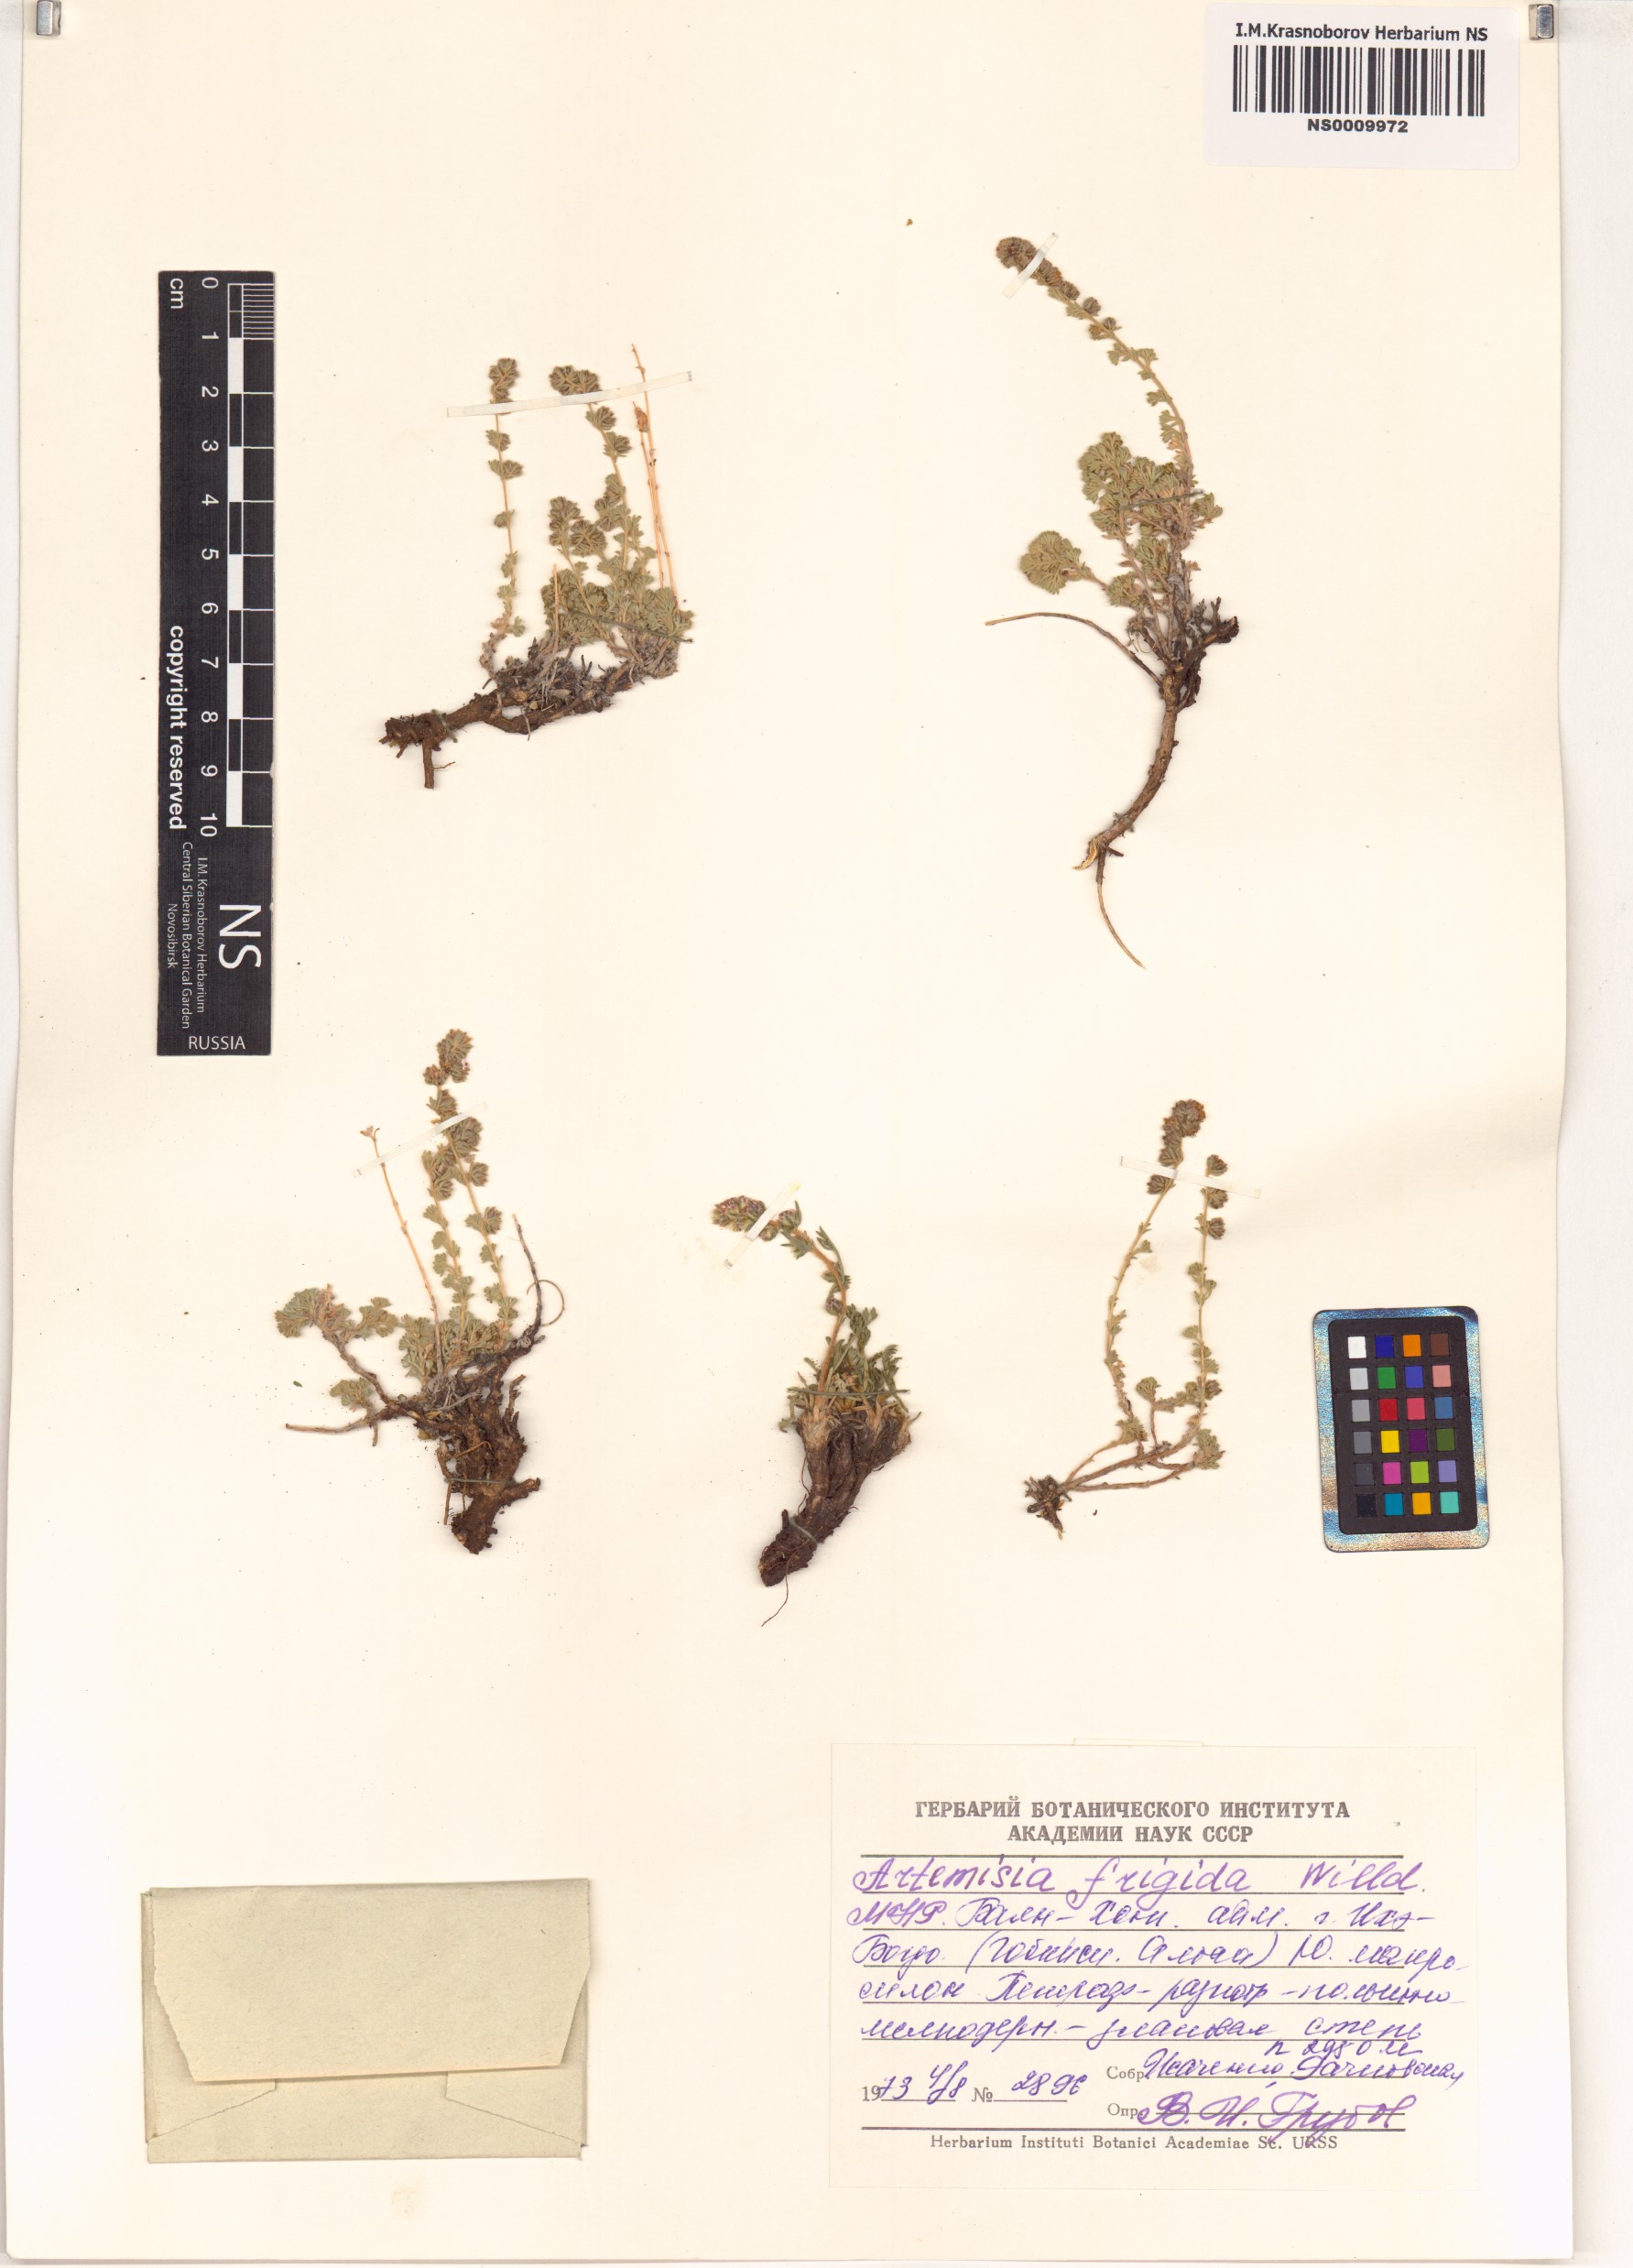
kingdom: Plantae
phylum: Tracheophyta
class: Magnoliopsida
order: Asterales
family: Asteraceae
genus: Artemisia
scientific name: Artemisia frigida
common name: Prairie sagewort
